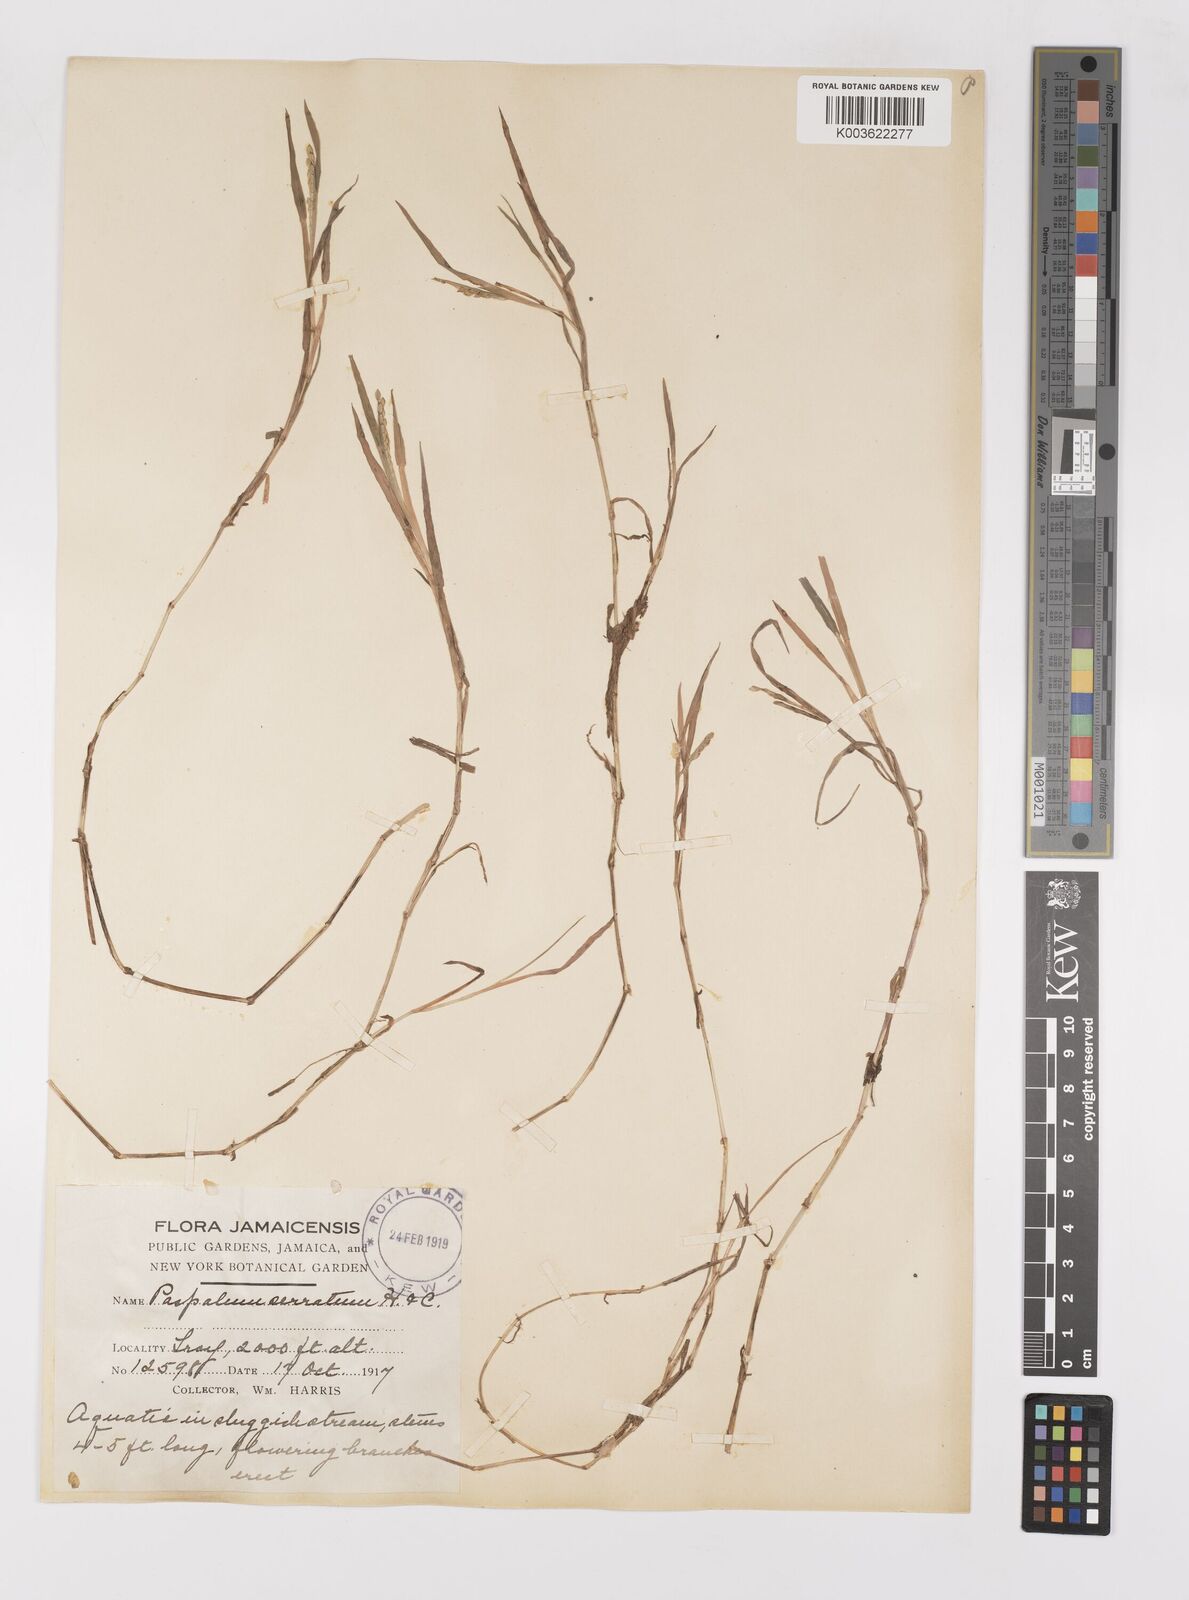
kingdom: Plantae
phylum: Tracheophyta
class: Liliopsida
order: Poales
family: Poaceae
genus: Paspalum
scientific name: Paspalum acuminatum
